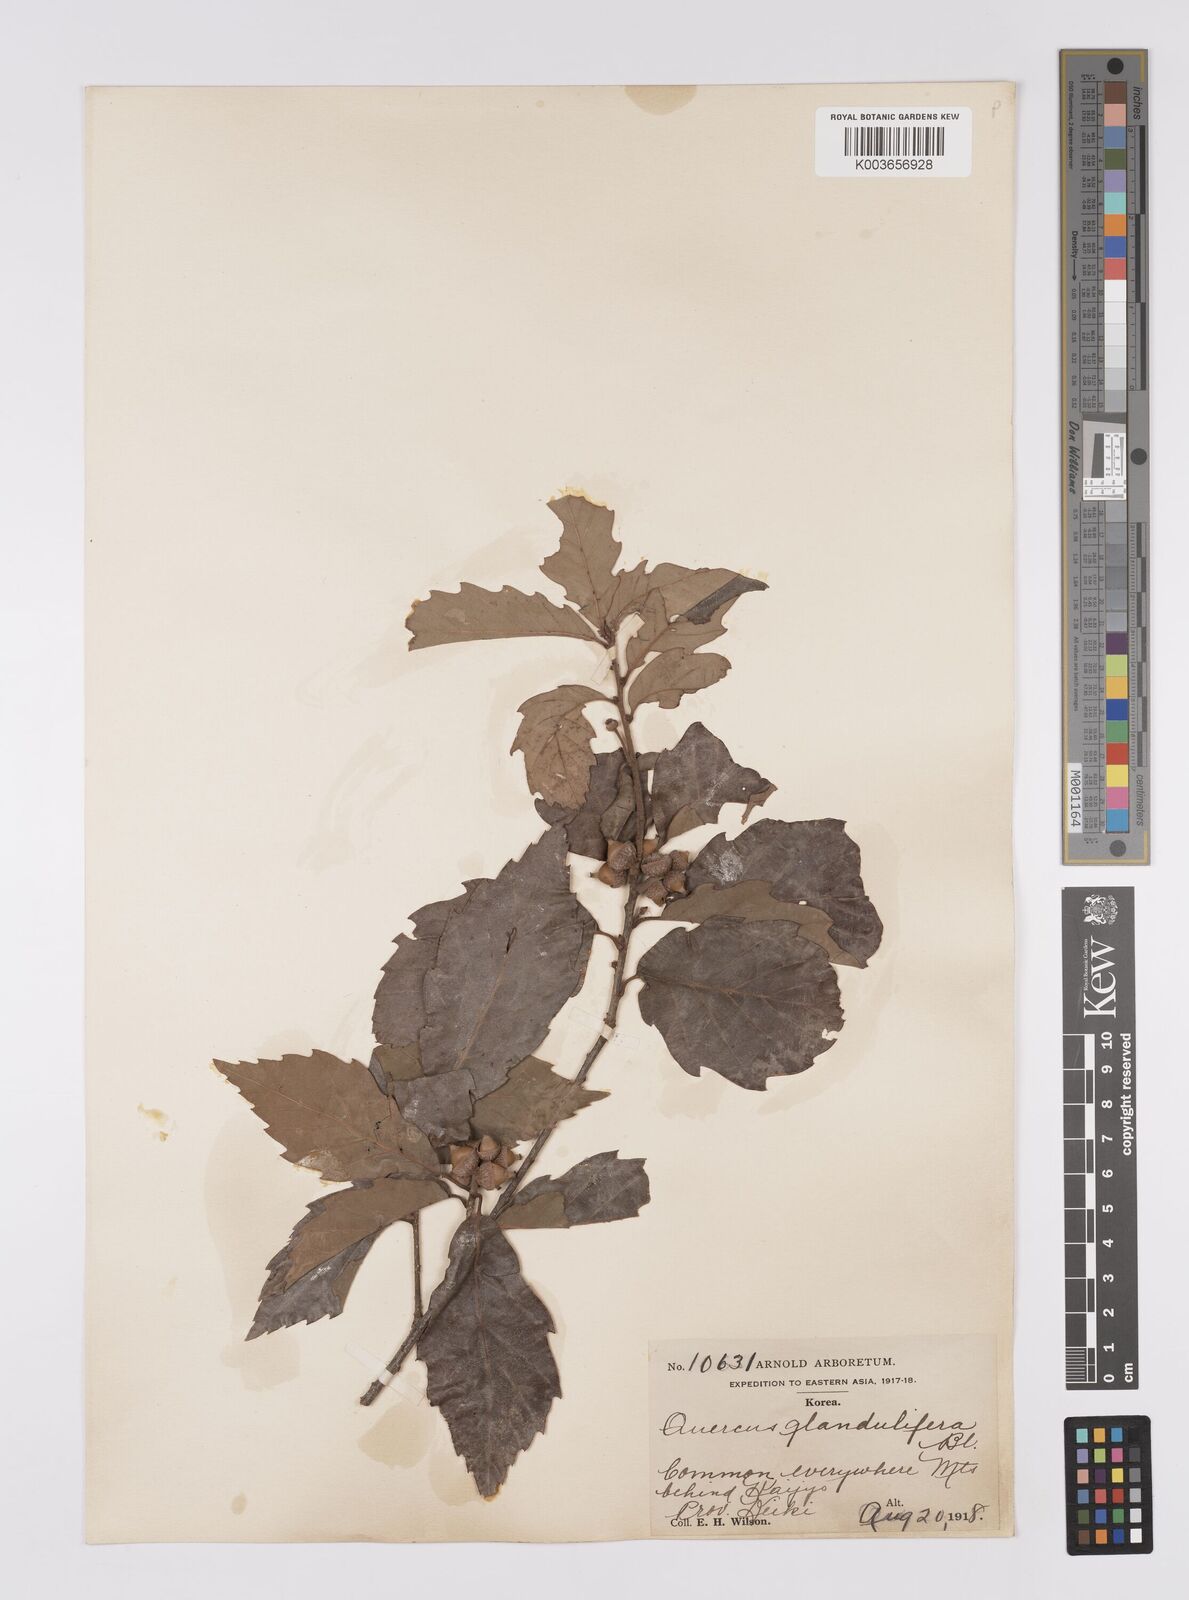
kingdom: Plantae
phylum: Tracheophyta
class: Magnoliopsida
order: Fagales
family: Fagaceae
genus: Quercus
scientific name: Quercus serrata
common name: Bao li
